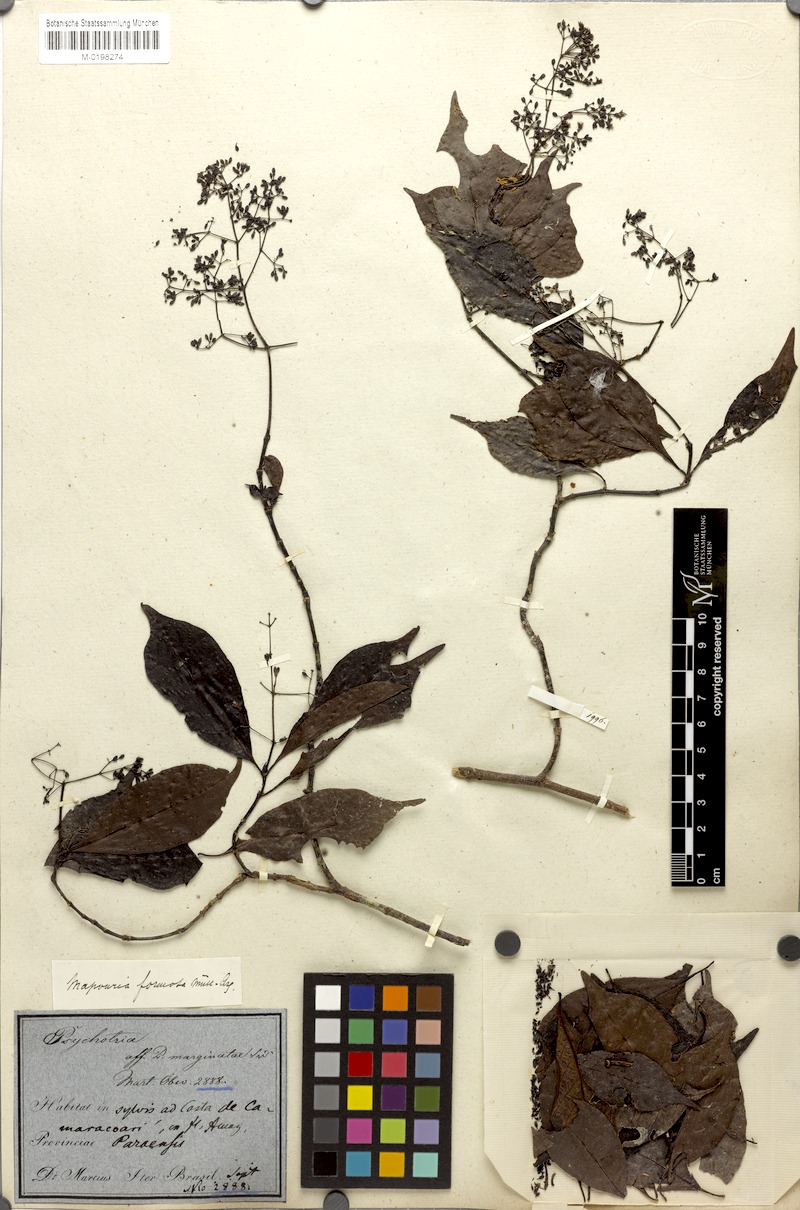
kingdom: Plantae
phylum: Tracheophyta
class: Magnoliopsida
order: Gentianales
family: Rubiaceae
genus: Psychotria
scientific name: Psychotria formosa
